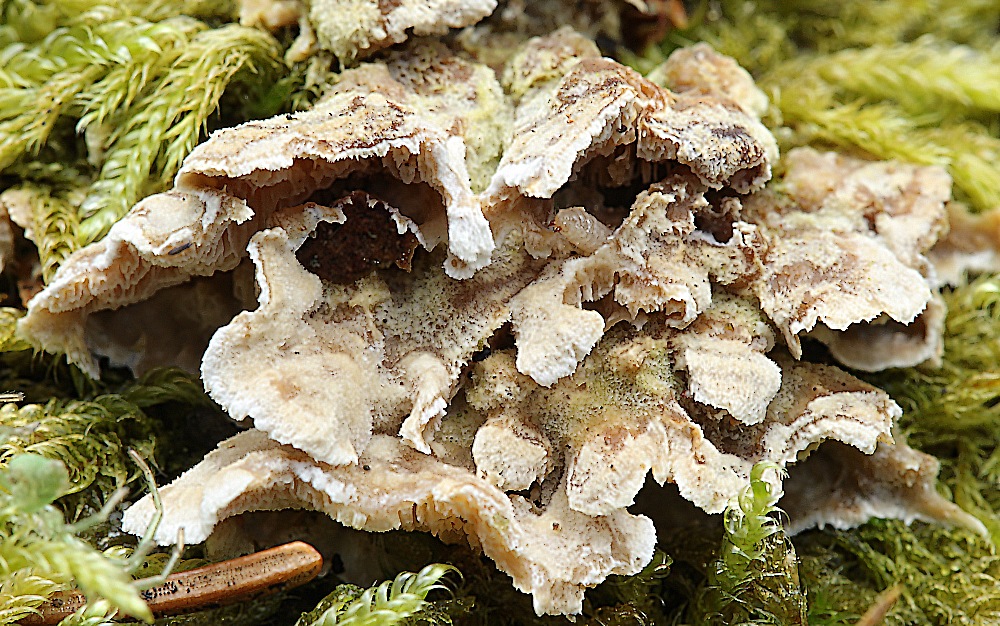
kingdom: Fungi
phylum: Basidiomycota
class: Agaricomycetes
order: Polyporales
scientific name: Polyporales
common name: poresvampordenen
